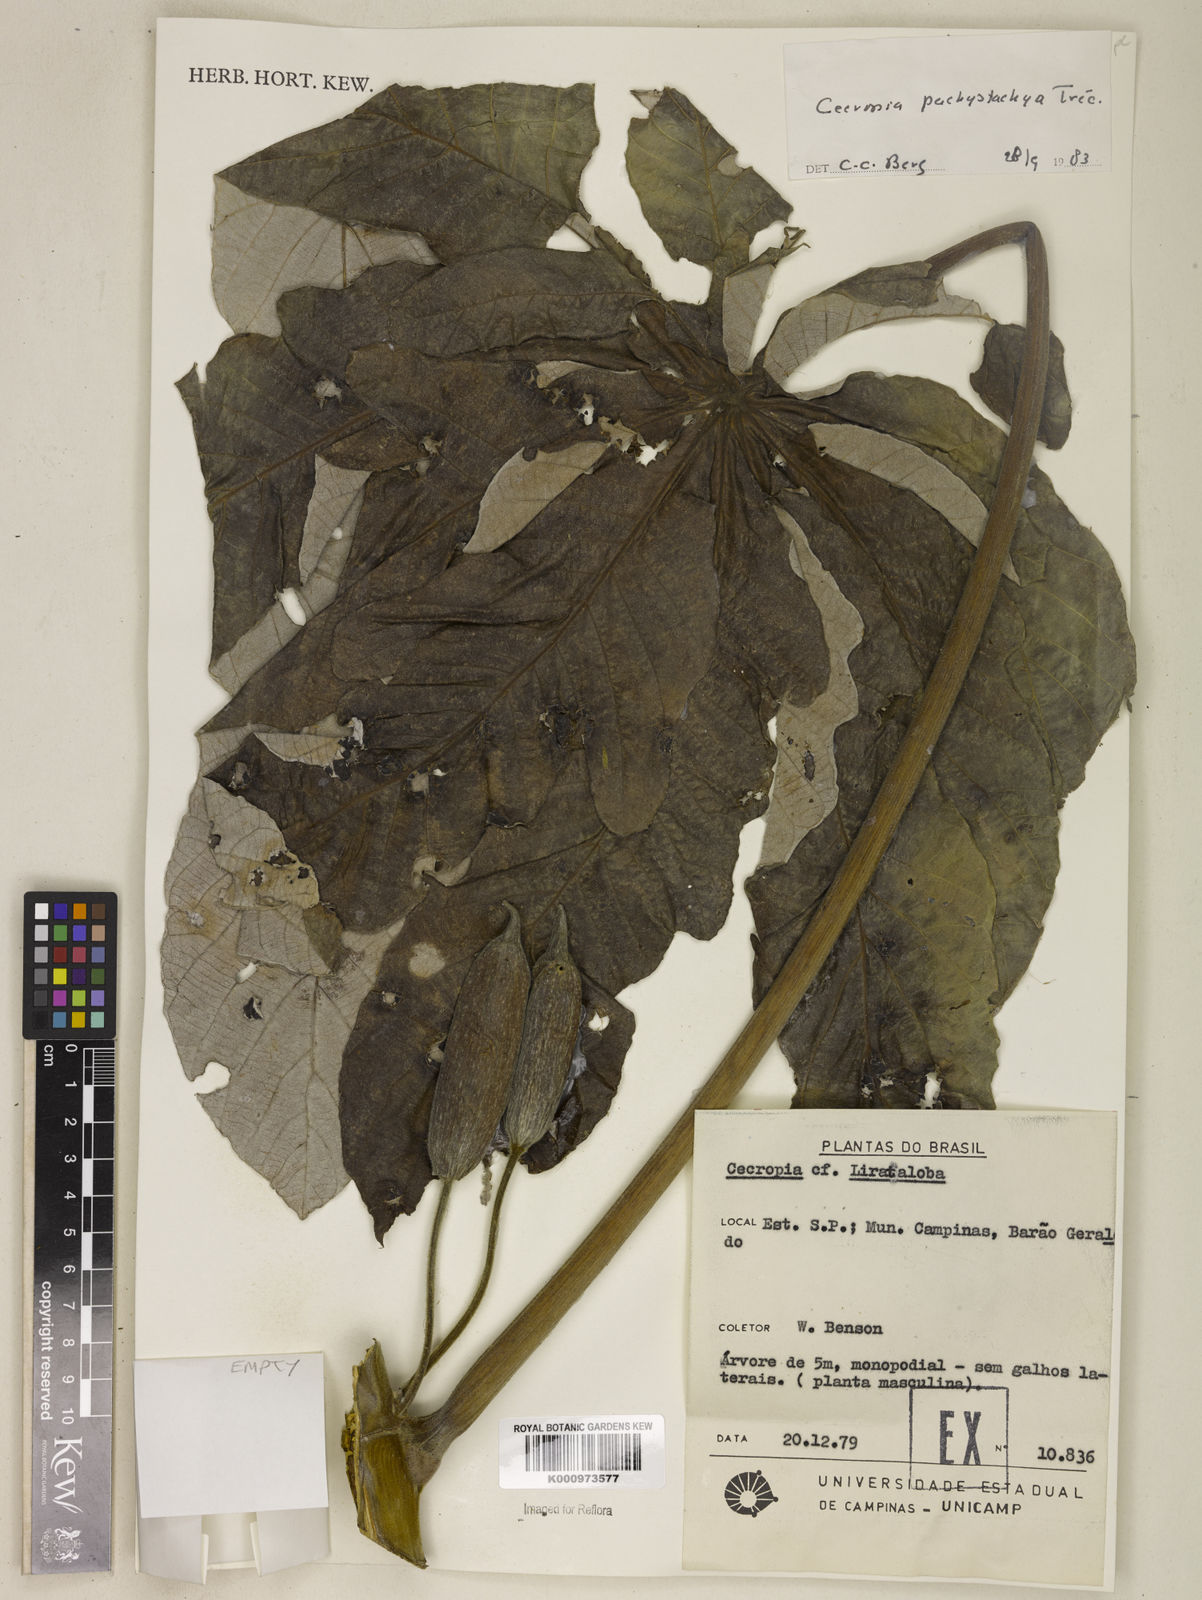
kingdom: Plantae
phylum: Tracheophyta
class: Magnoliopsida
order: Rosales
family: Urticaceae
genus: Cecropia
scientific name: Cecropia
